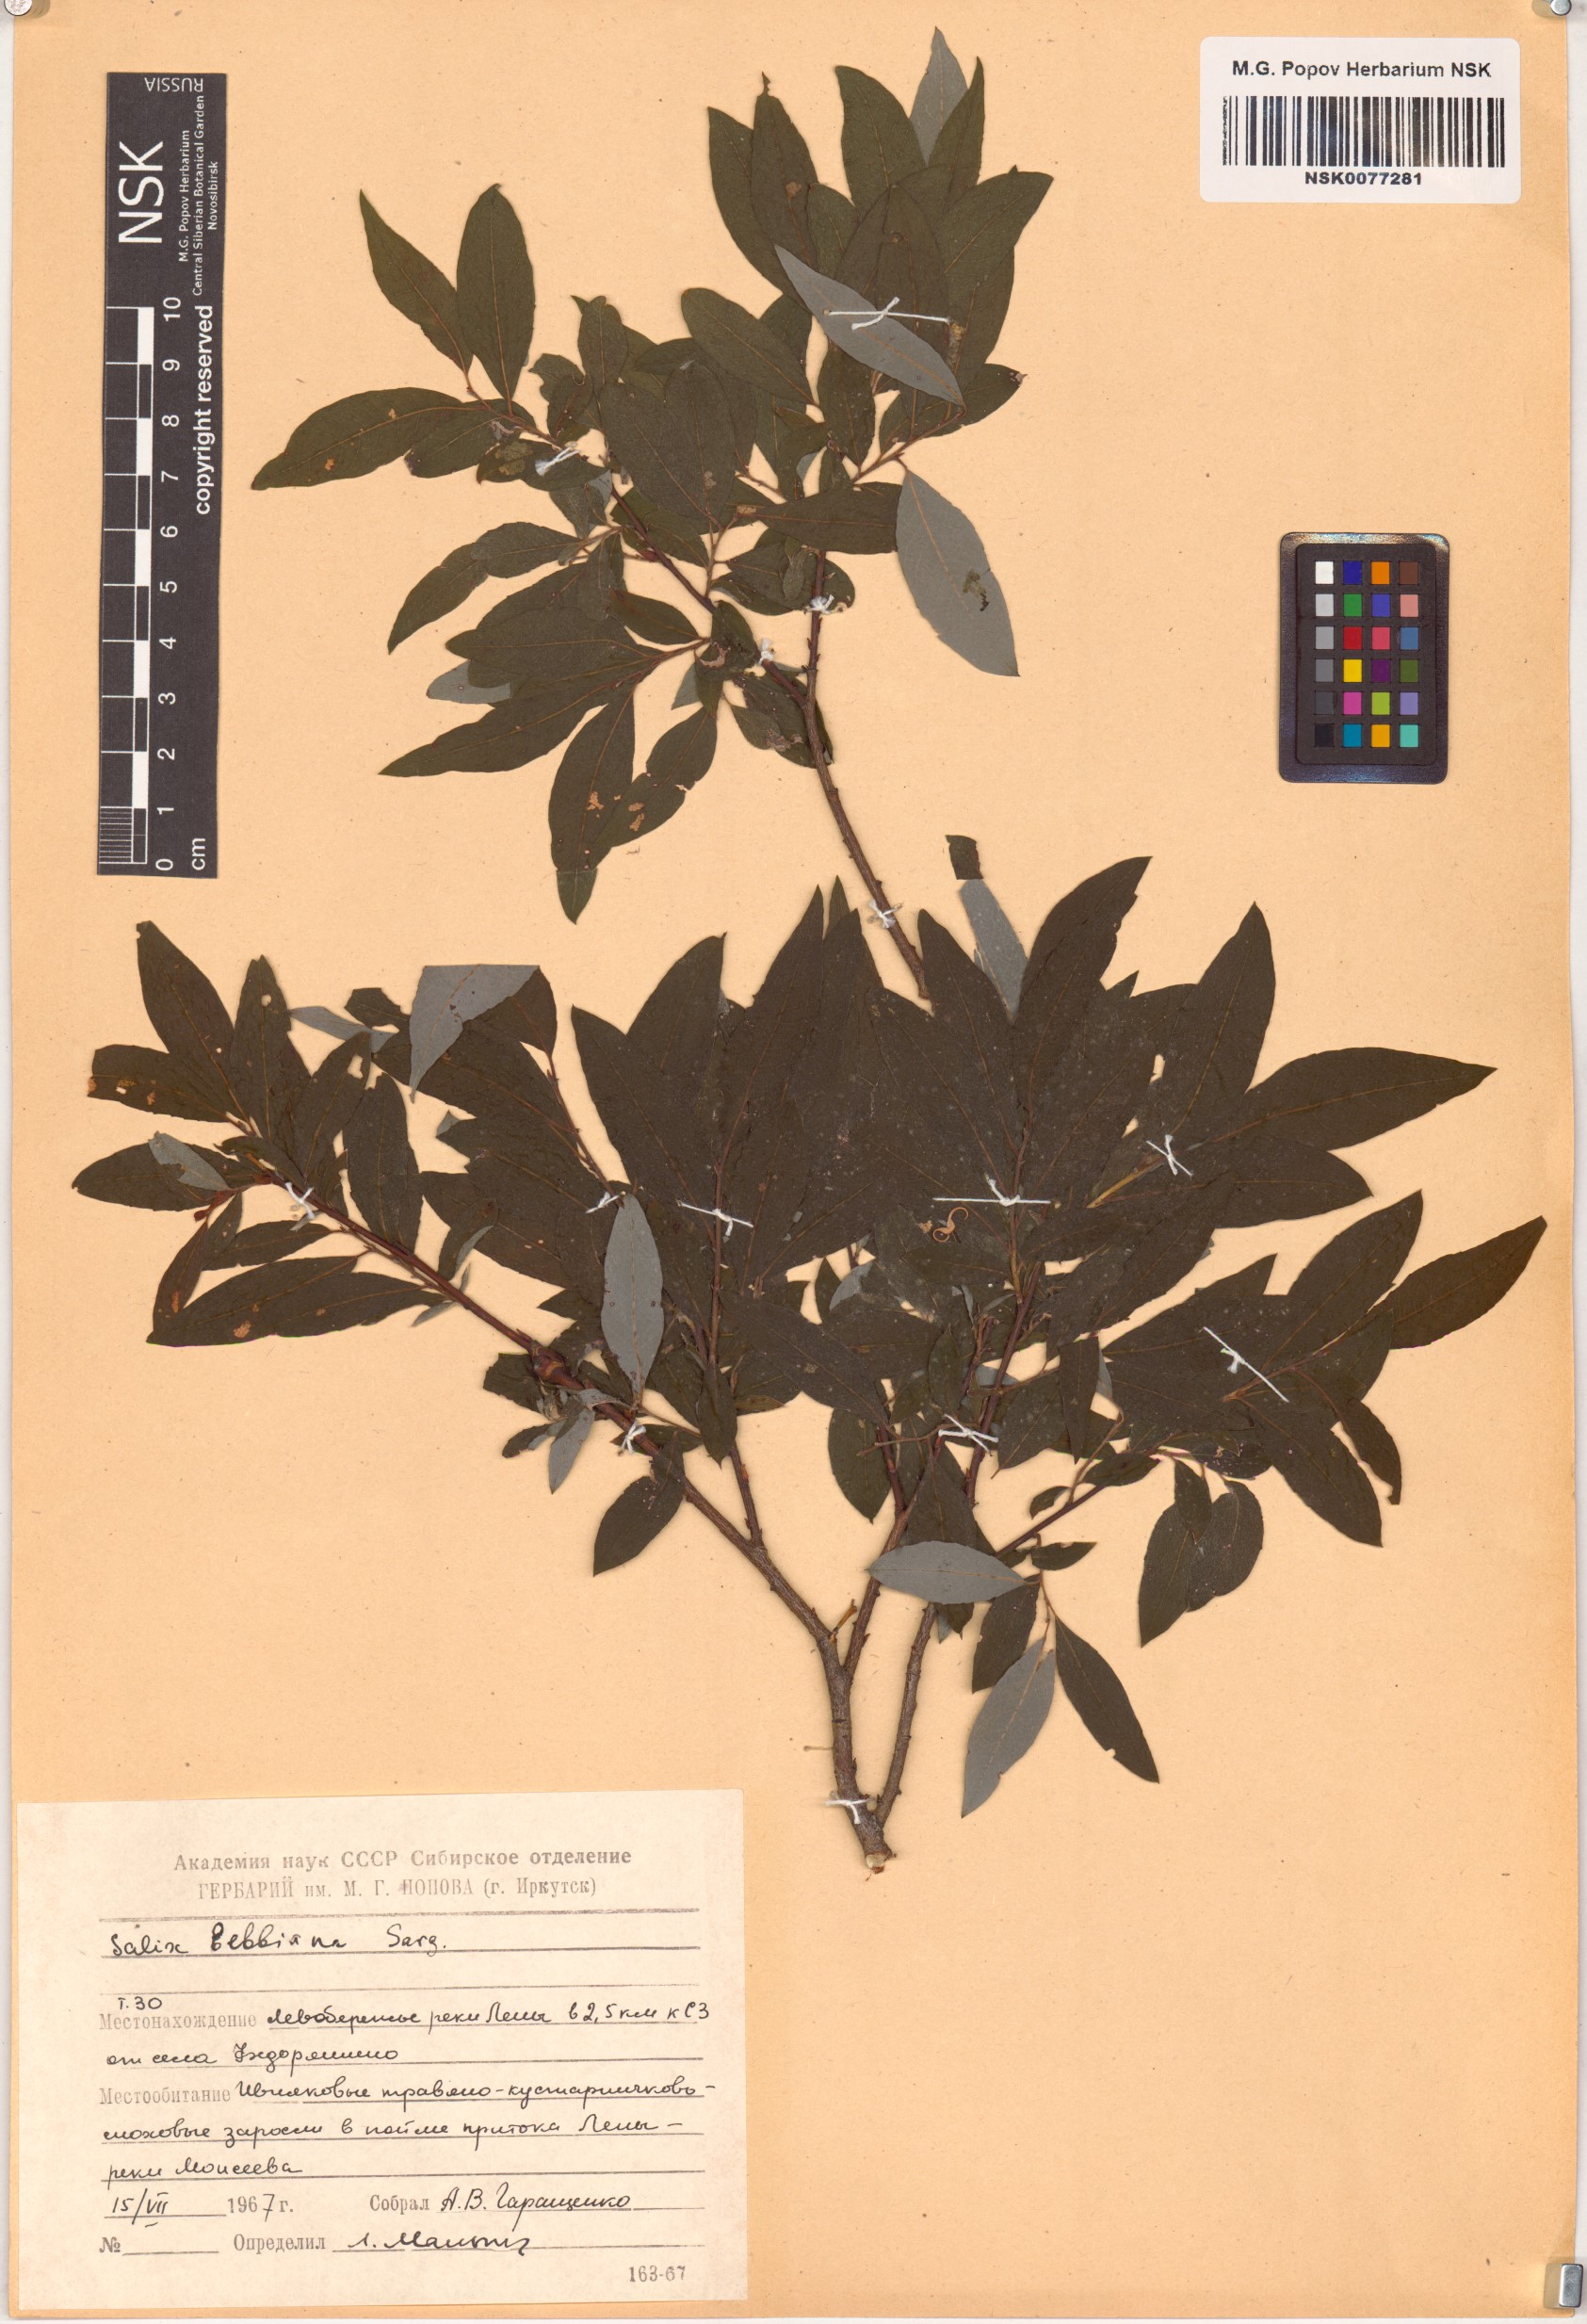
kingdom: Plantae
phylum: Tracheophyta
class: Magnoliopsida
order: Malpighiales
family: Salicaceae
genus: Salix
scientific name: Salix bebbiana
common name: Bebb's willow
